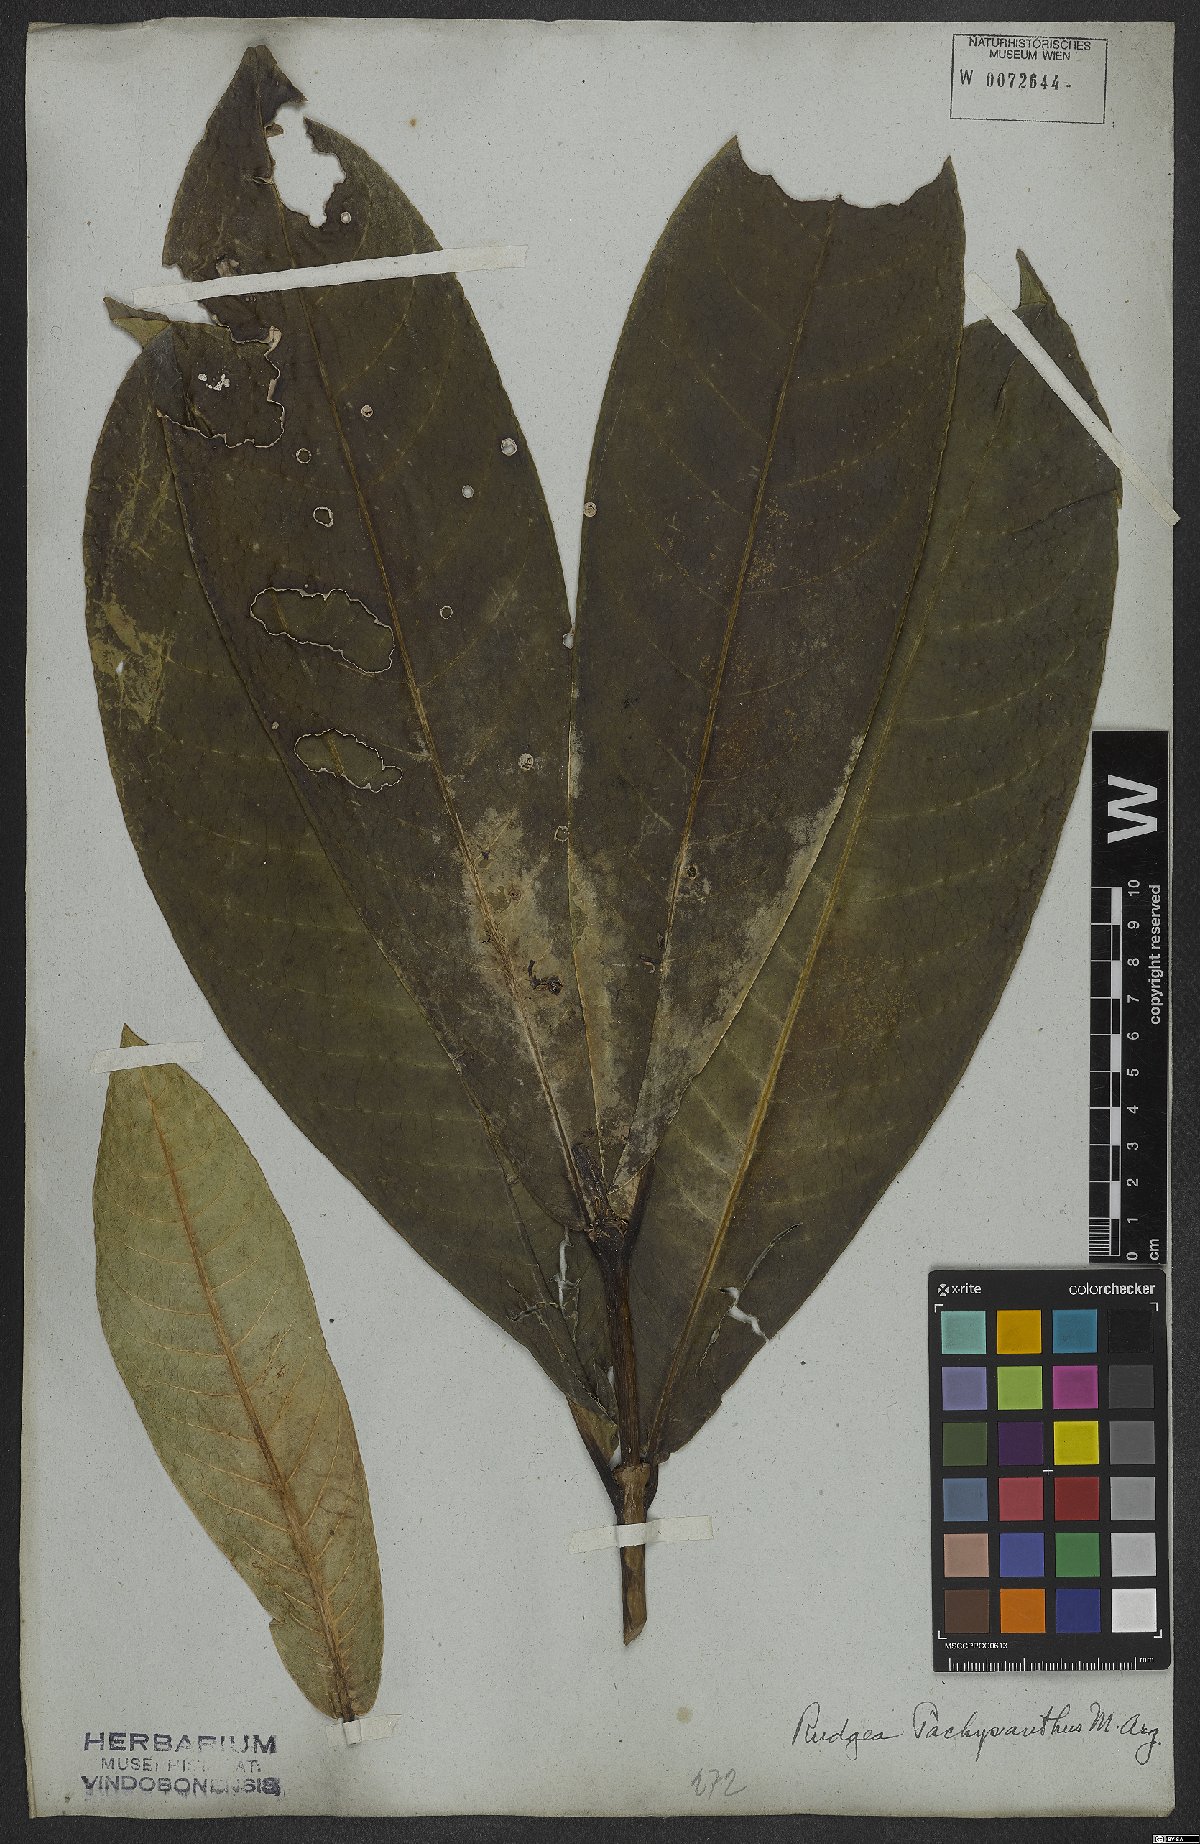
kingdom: Plantae
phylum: Tracheophyta
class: Magnoliopsida
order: Gentianales
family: Rubiaceae
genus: Rudgea
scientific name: Rudgea vellerea
